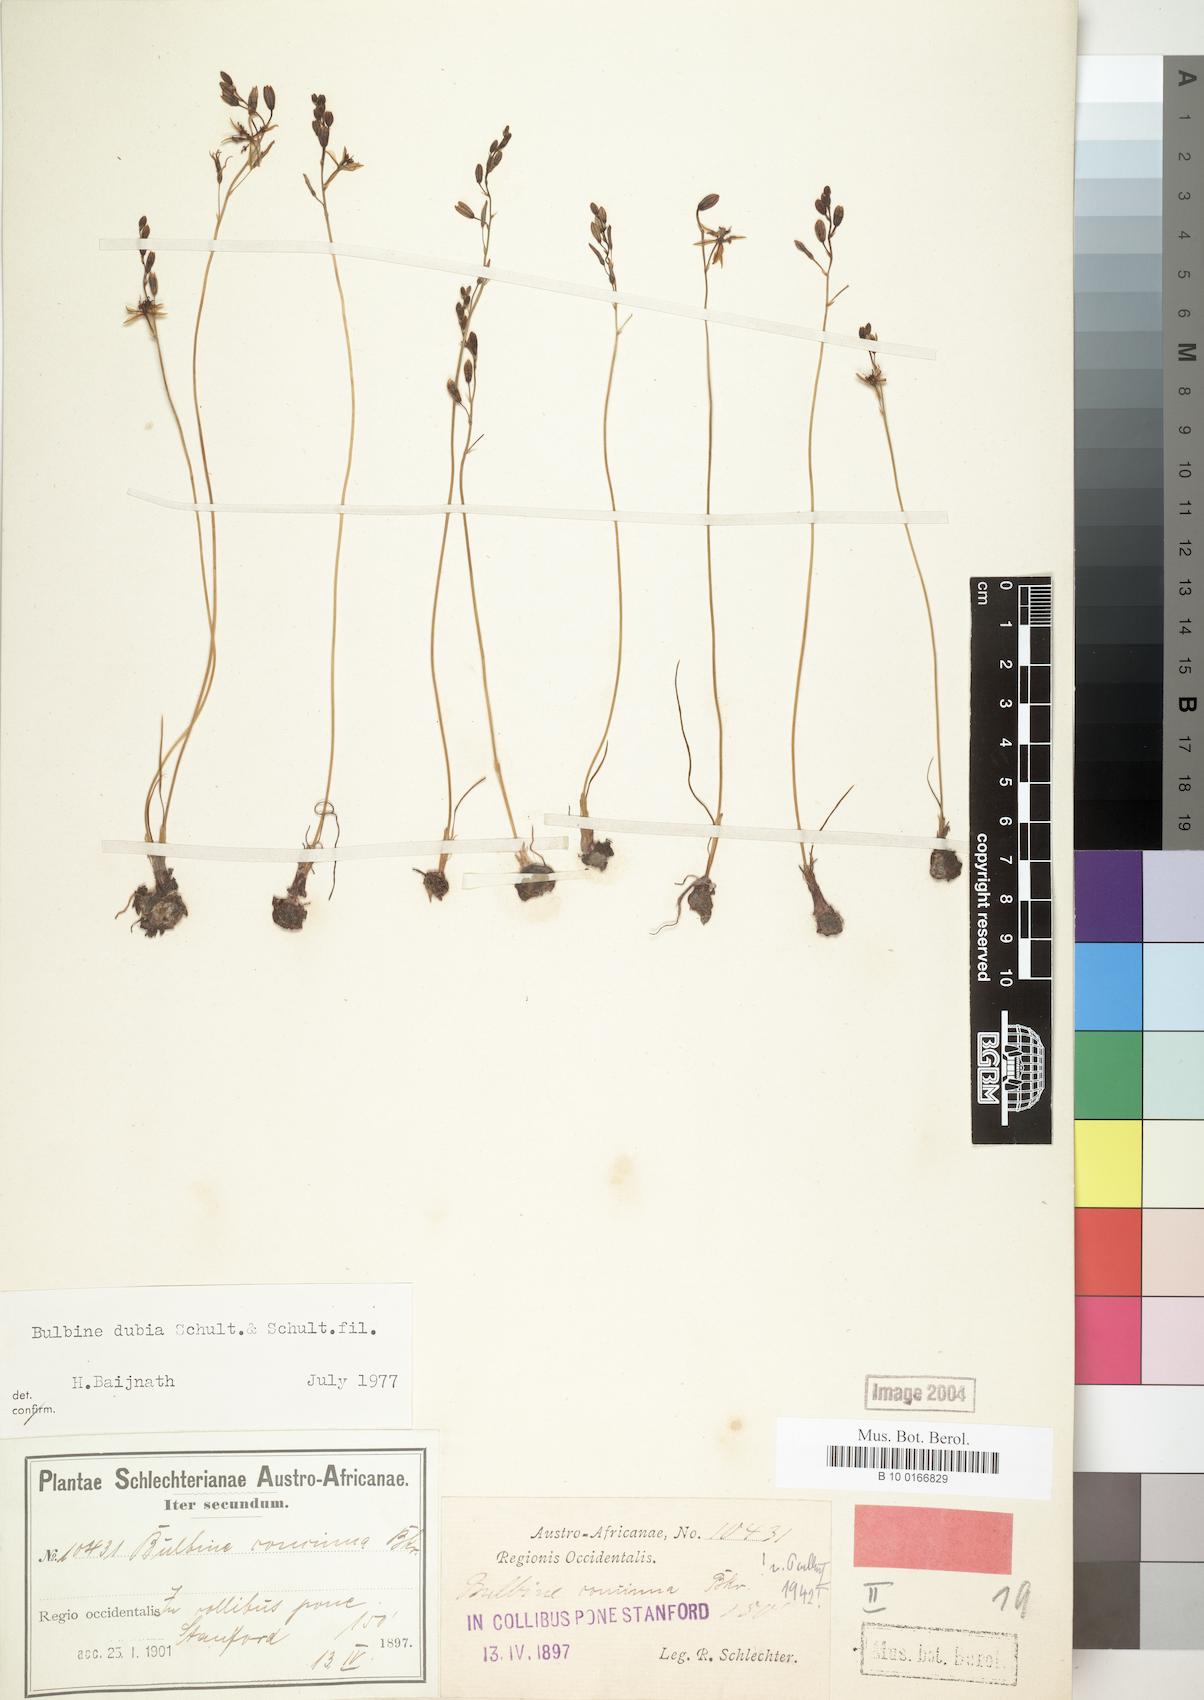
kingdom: Plantae
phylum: Tracheophyta
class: Liliopsida
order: Asparagales
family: Asphodelaceae
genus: Bulbine
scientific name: Bulbine favosa
